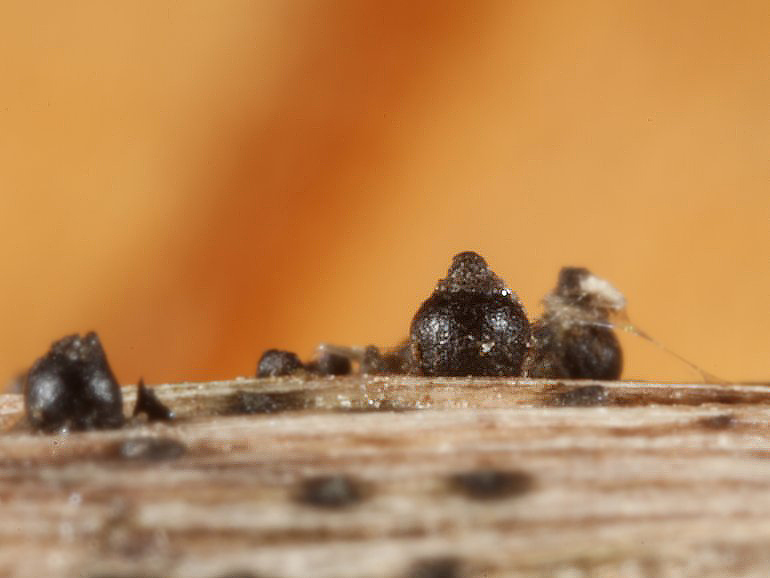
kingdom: Fungi
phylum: Ascomycota
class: Dothideomycetes
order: Pleosporales
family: Leptosphaeriaceae
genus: Leptosphaeria
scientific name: Leptosphaeria acuta
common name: spids kulkegle
